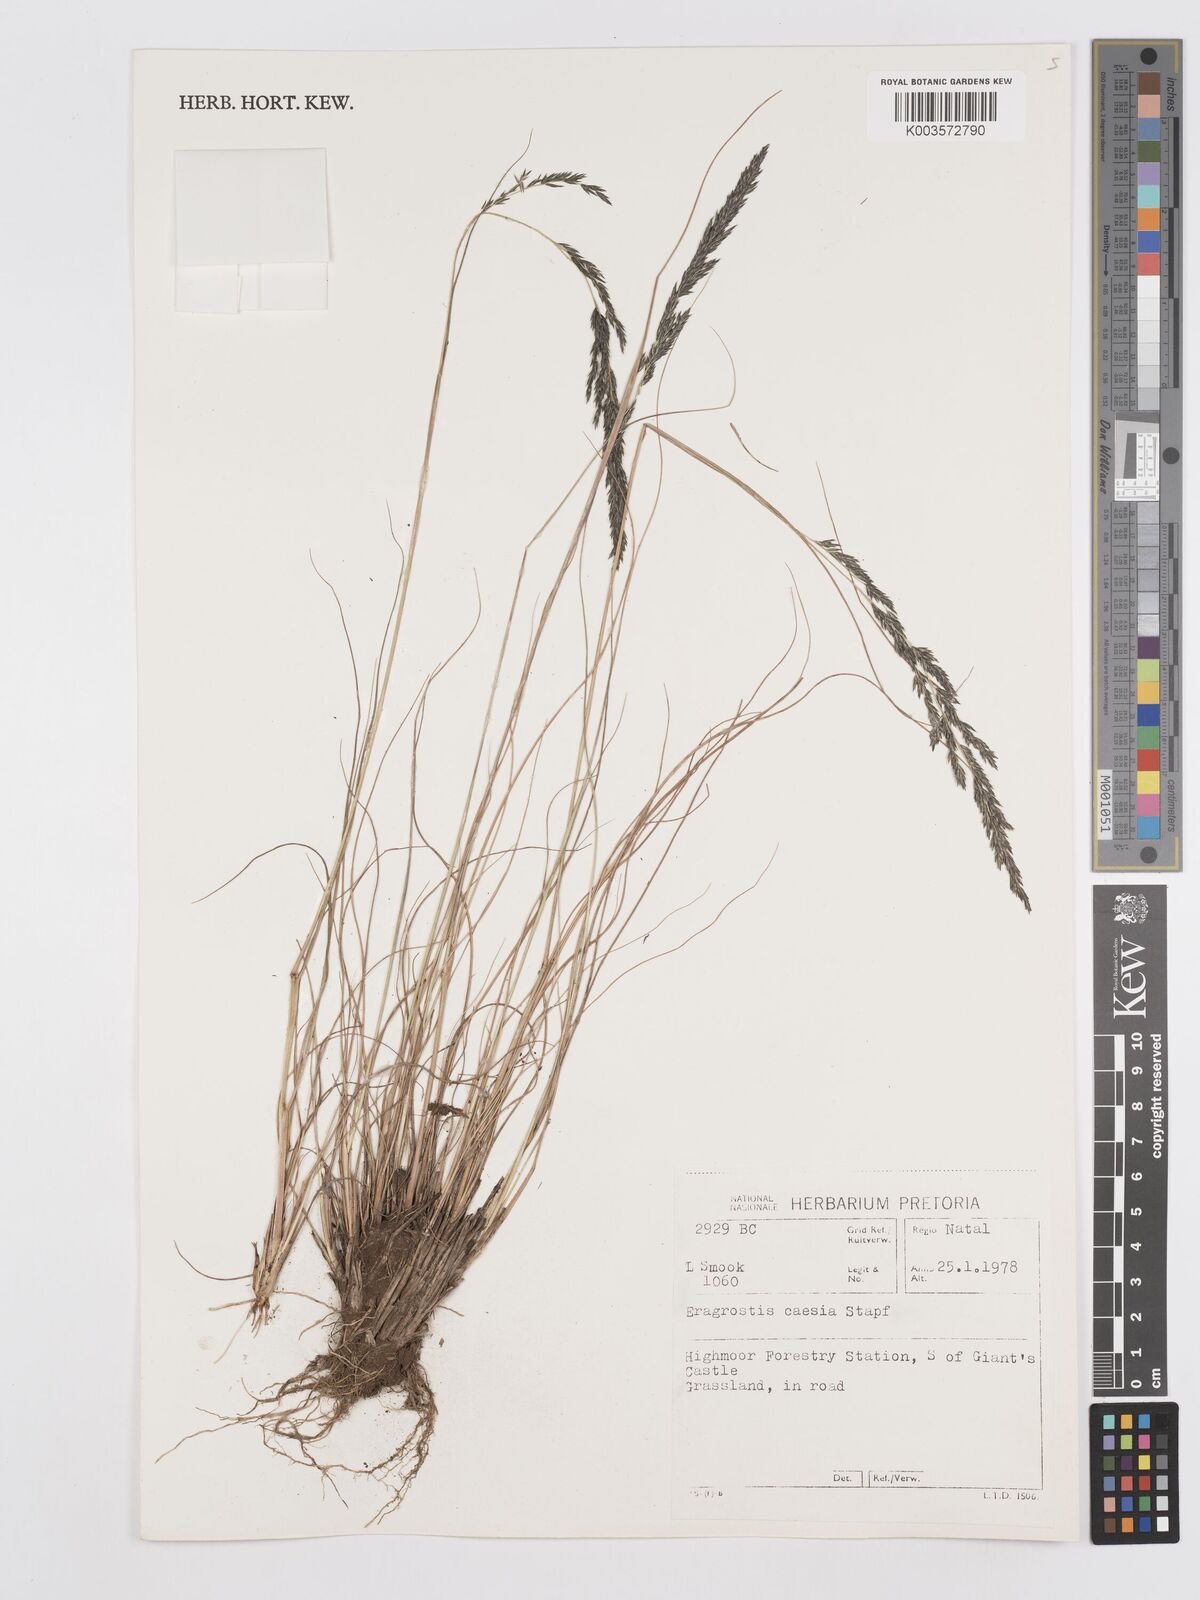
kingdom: Plantae
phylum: Tracheophyta
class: Liliopsida
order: Poales
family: Poaceae
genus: Eragrostis
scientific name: Eragrostis caesia
